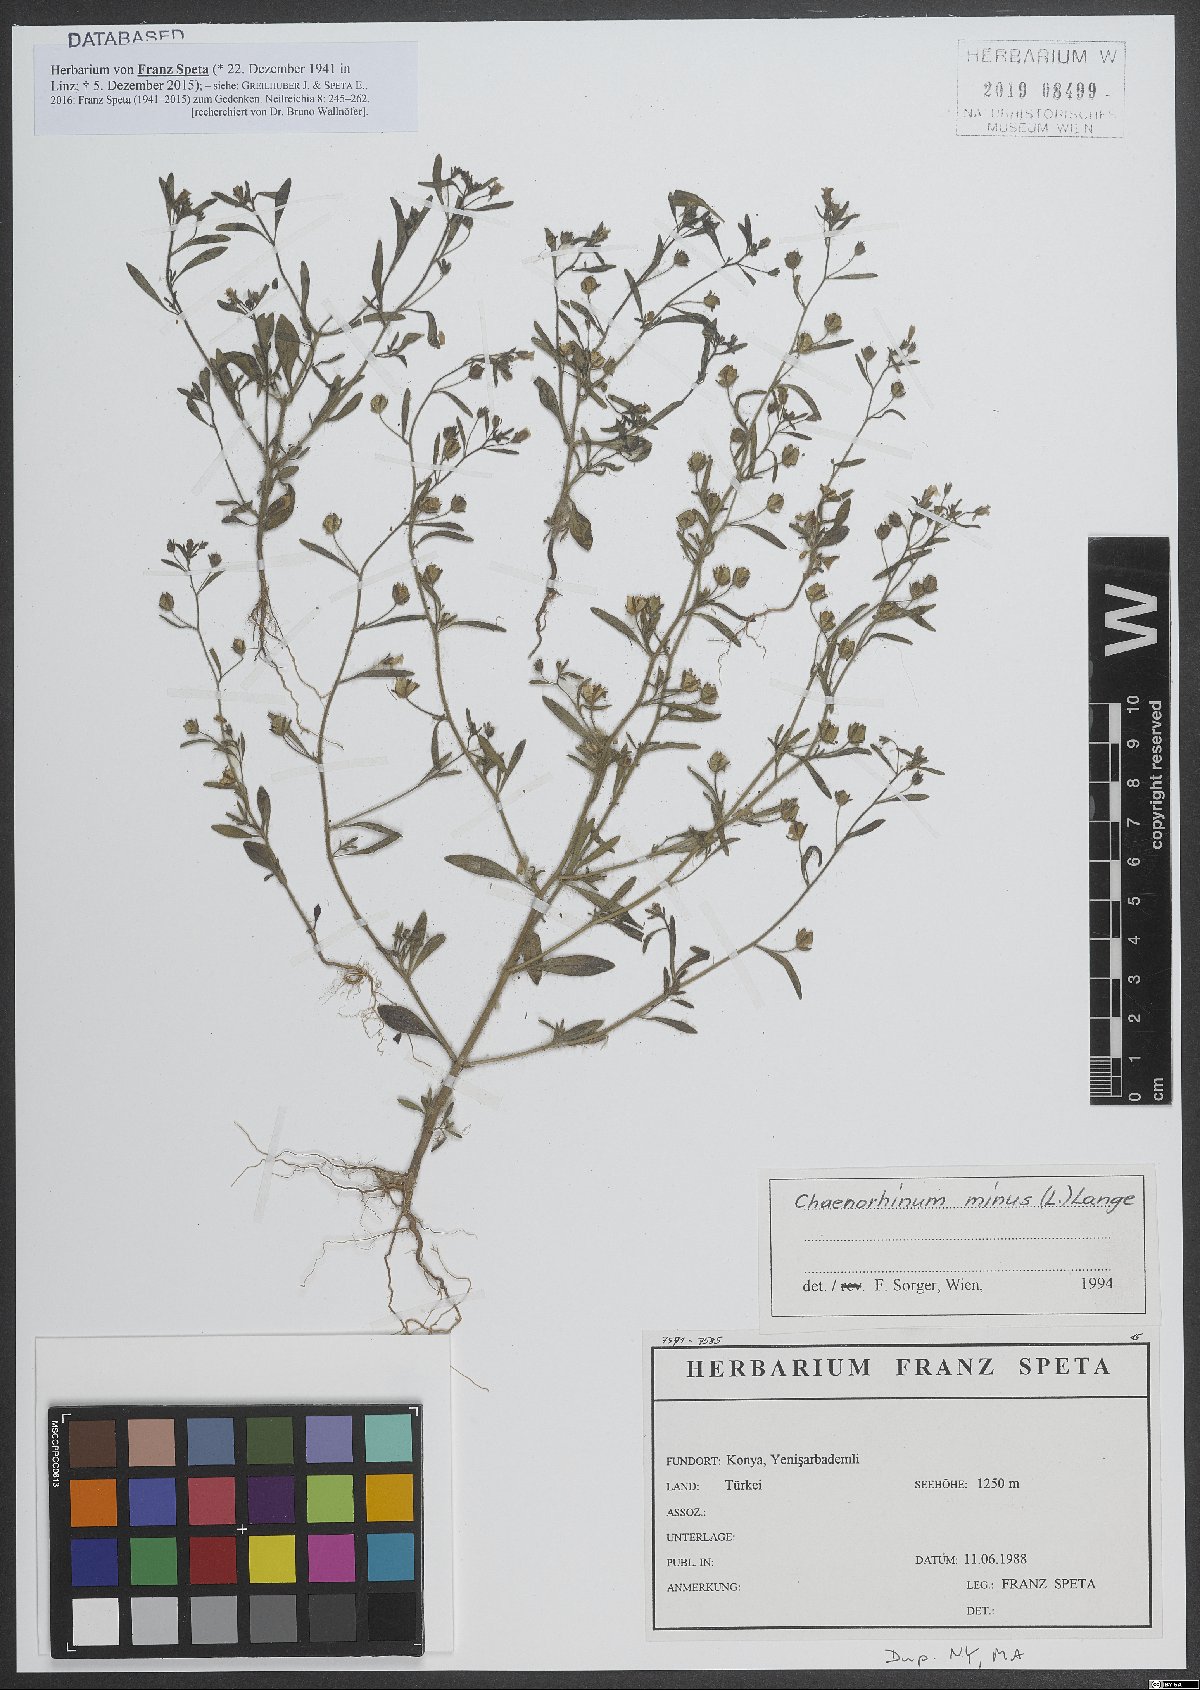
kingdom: Plantae
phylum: Tracheophyta
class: Magnoliopsida
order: Lamiales
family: Plantaginaceae
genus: Chaenorhinum
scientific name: Chaenorhinum minus
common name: Dwarf snapdragon
